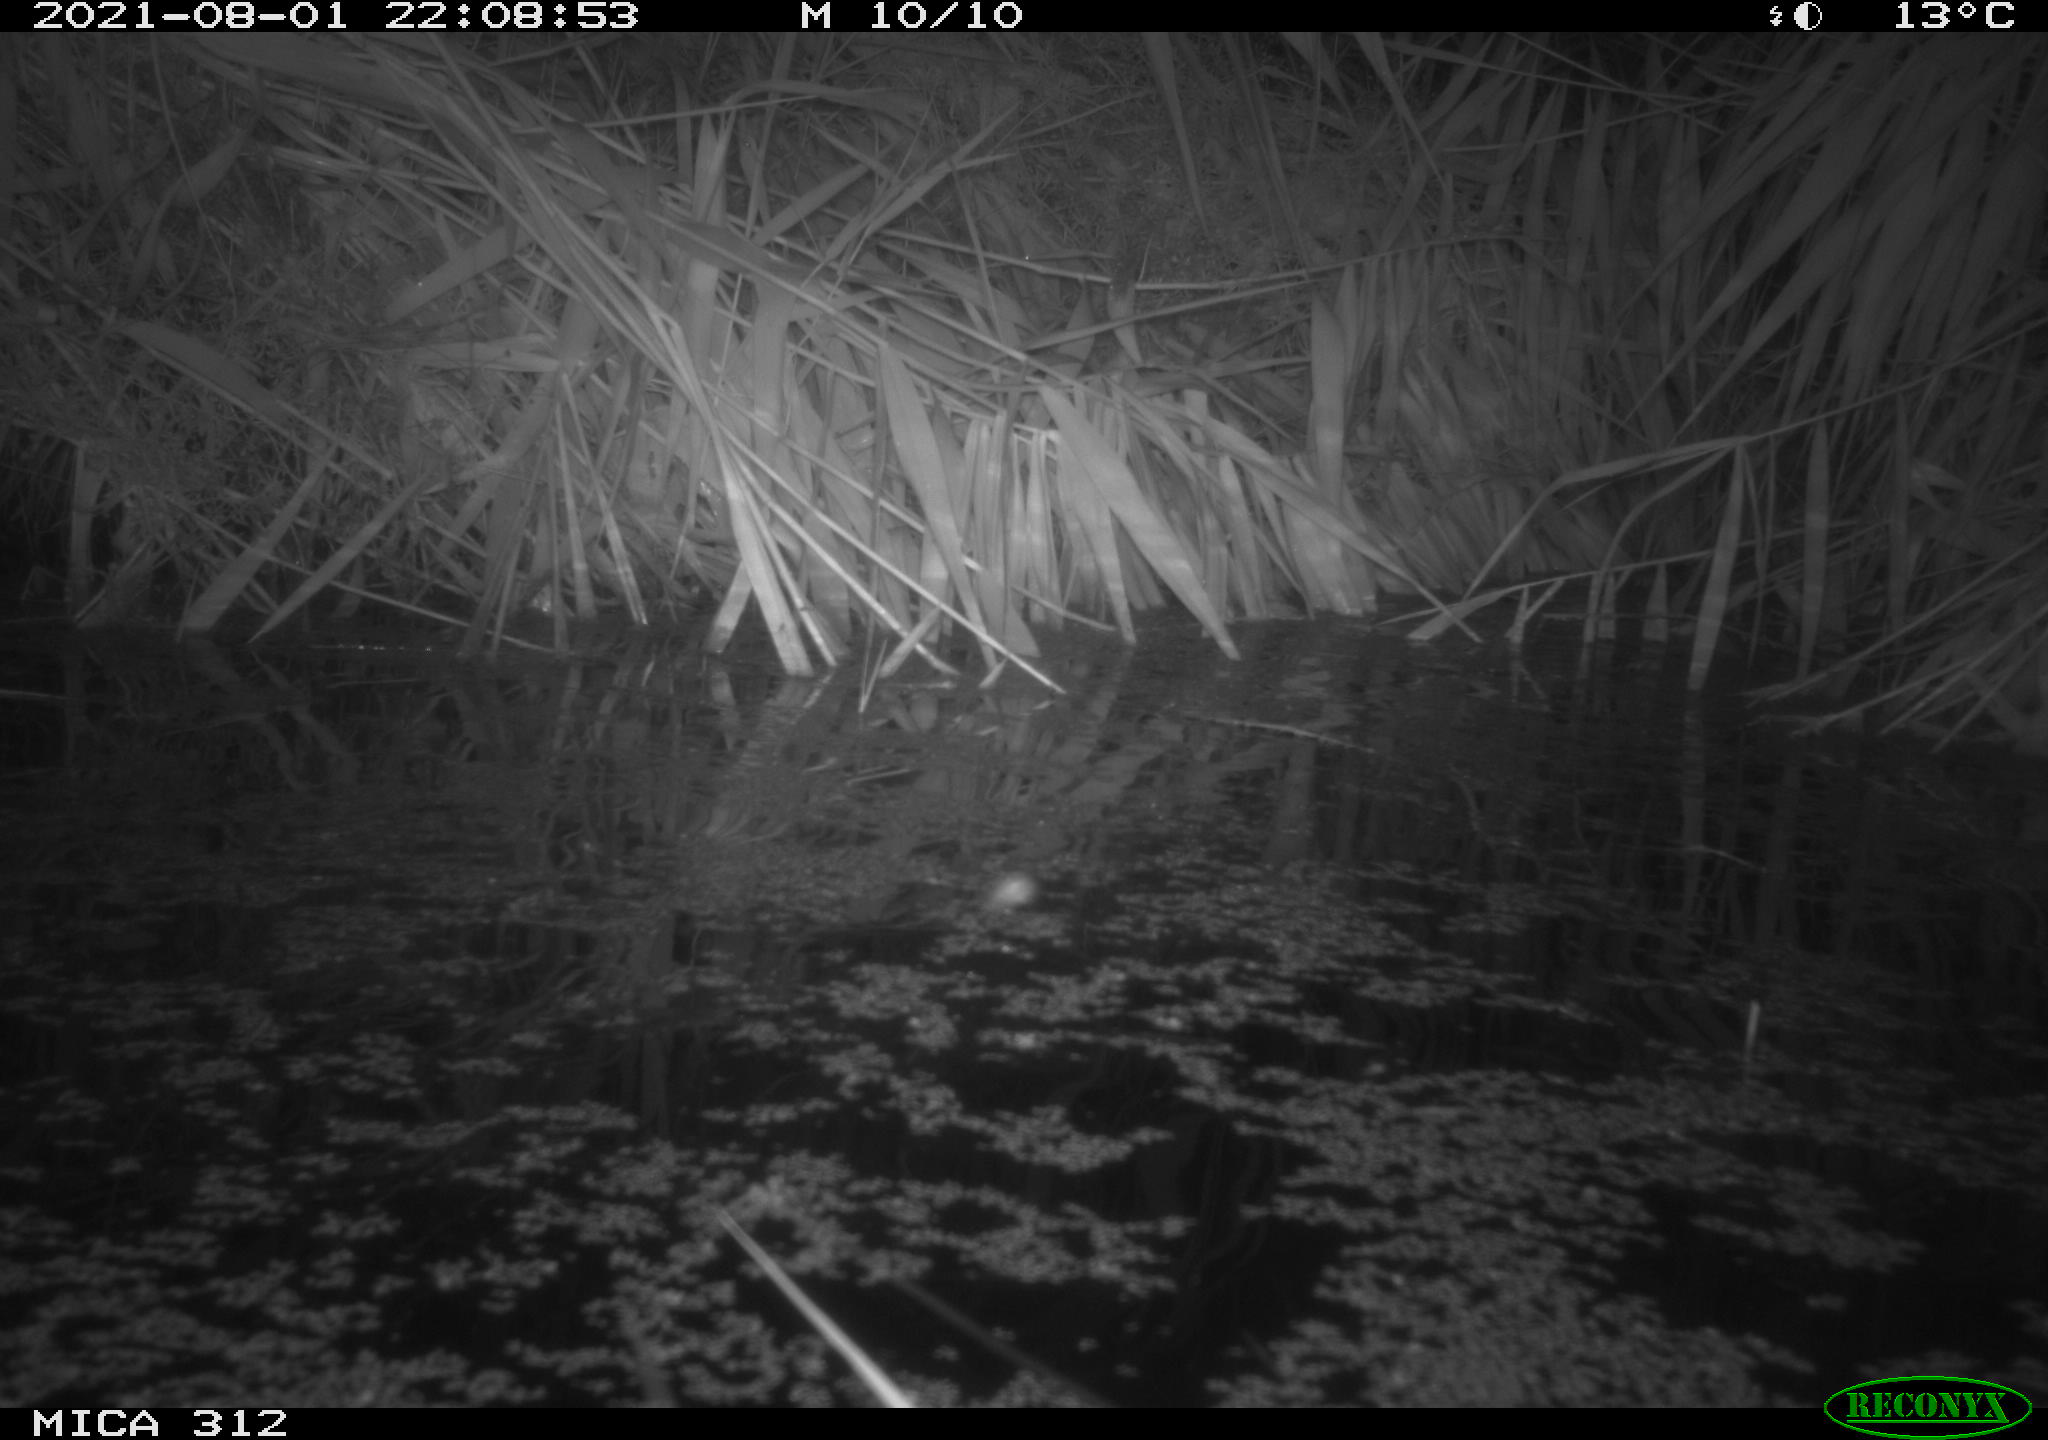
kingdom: Animalia
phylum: Chordata
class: Mammalia
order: Rodentia
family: Muridae
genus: Rattus
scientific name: Rattus norvegicus
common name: Brown rat
